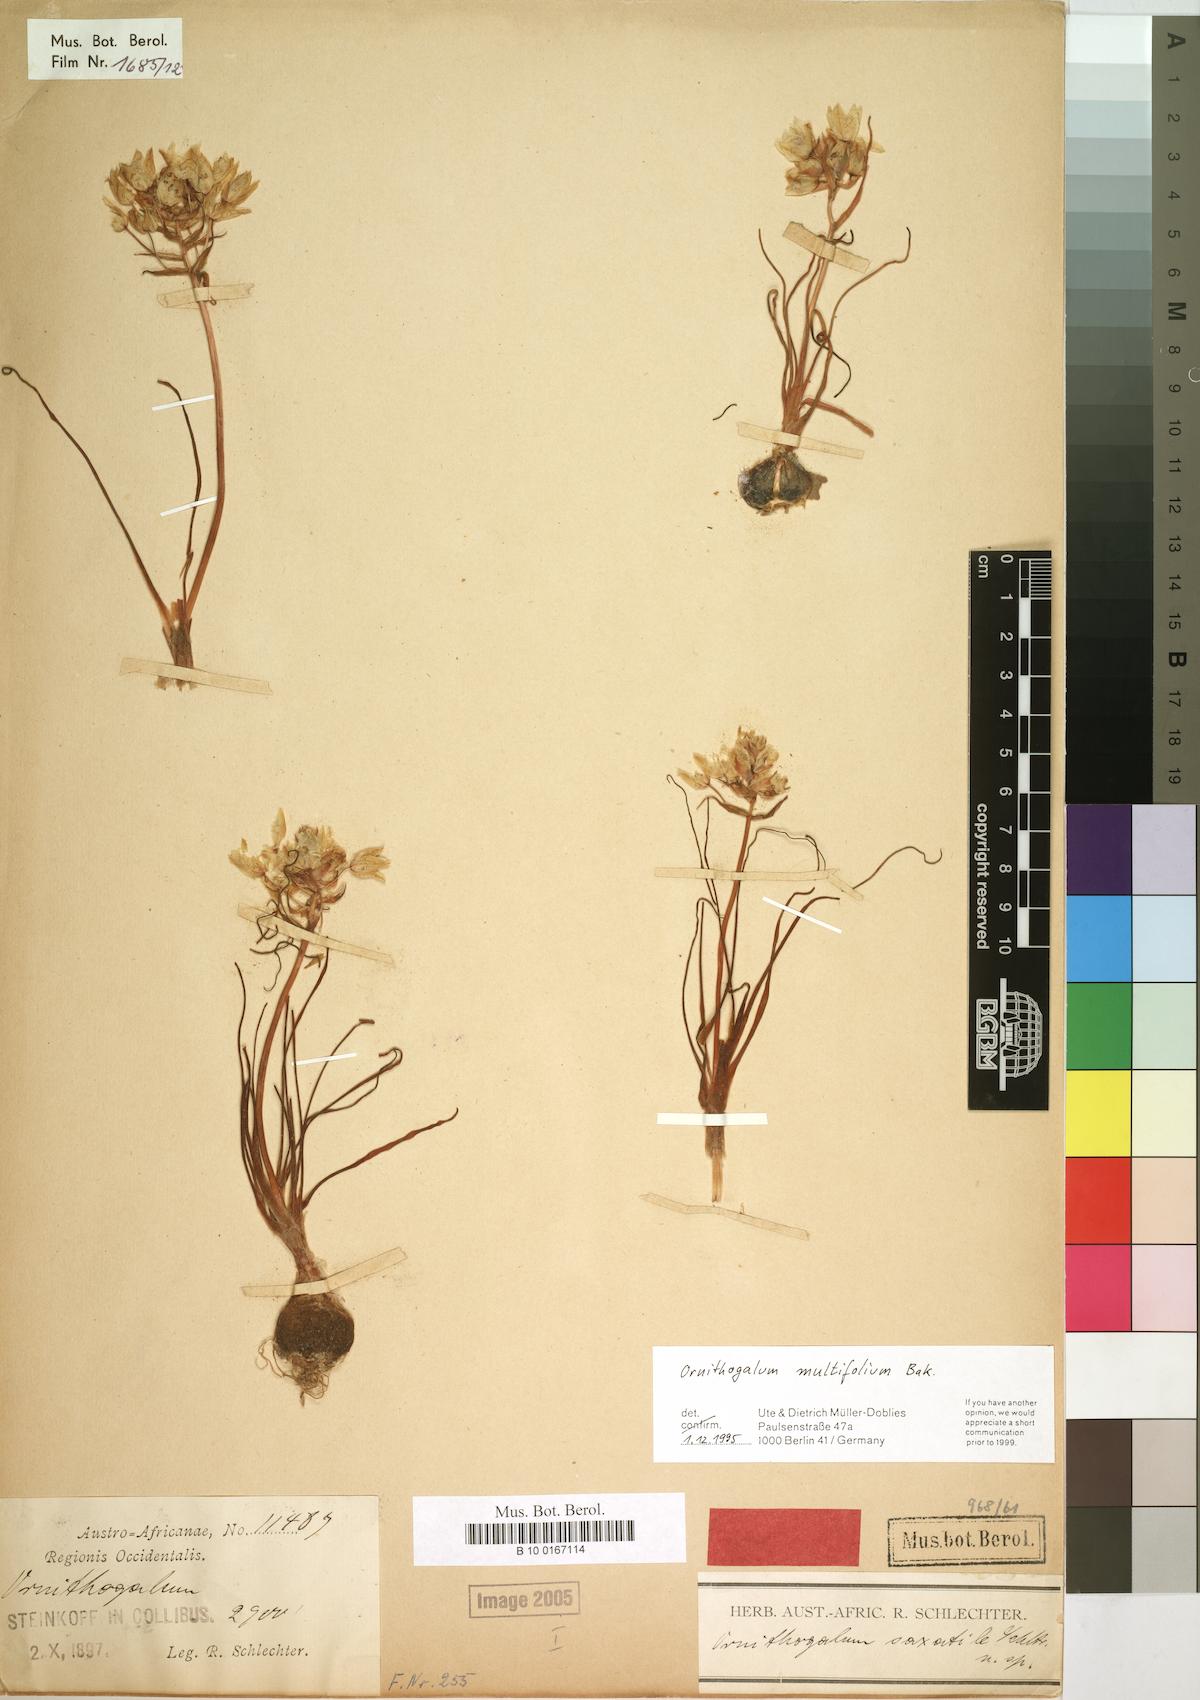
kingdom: Plantae
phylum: Tracheophyta
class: Liliopsida
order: Asparagales
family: Asparagaceae
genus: Ornithogalum
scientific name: Ornithogalum multifolium
